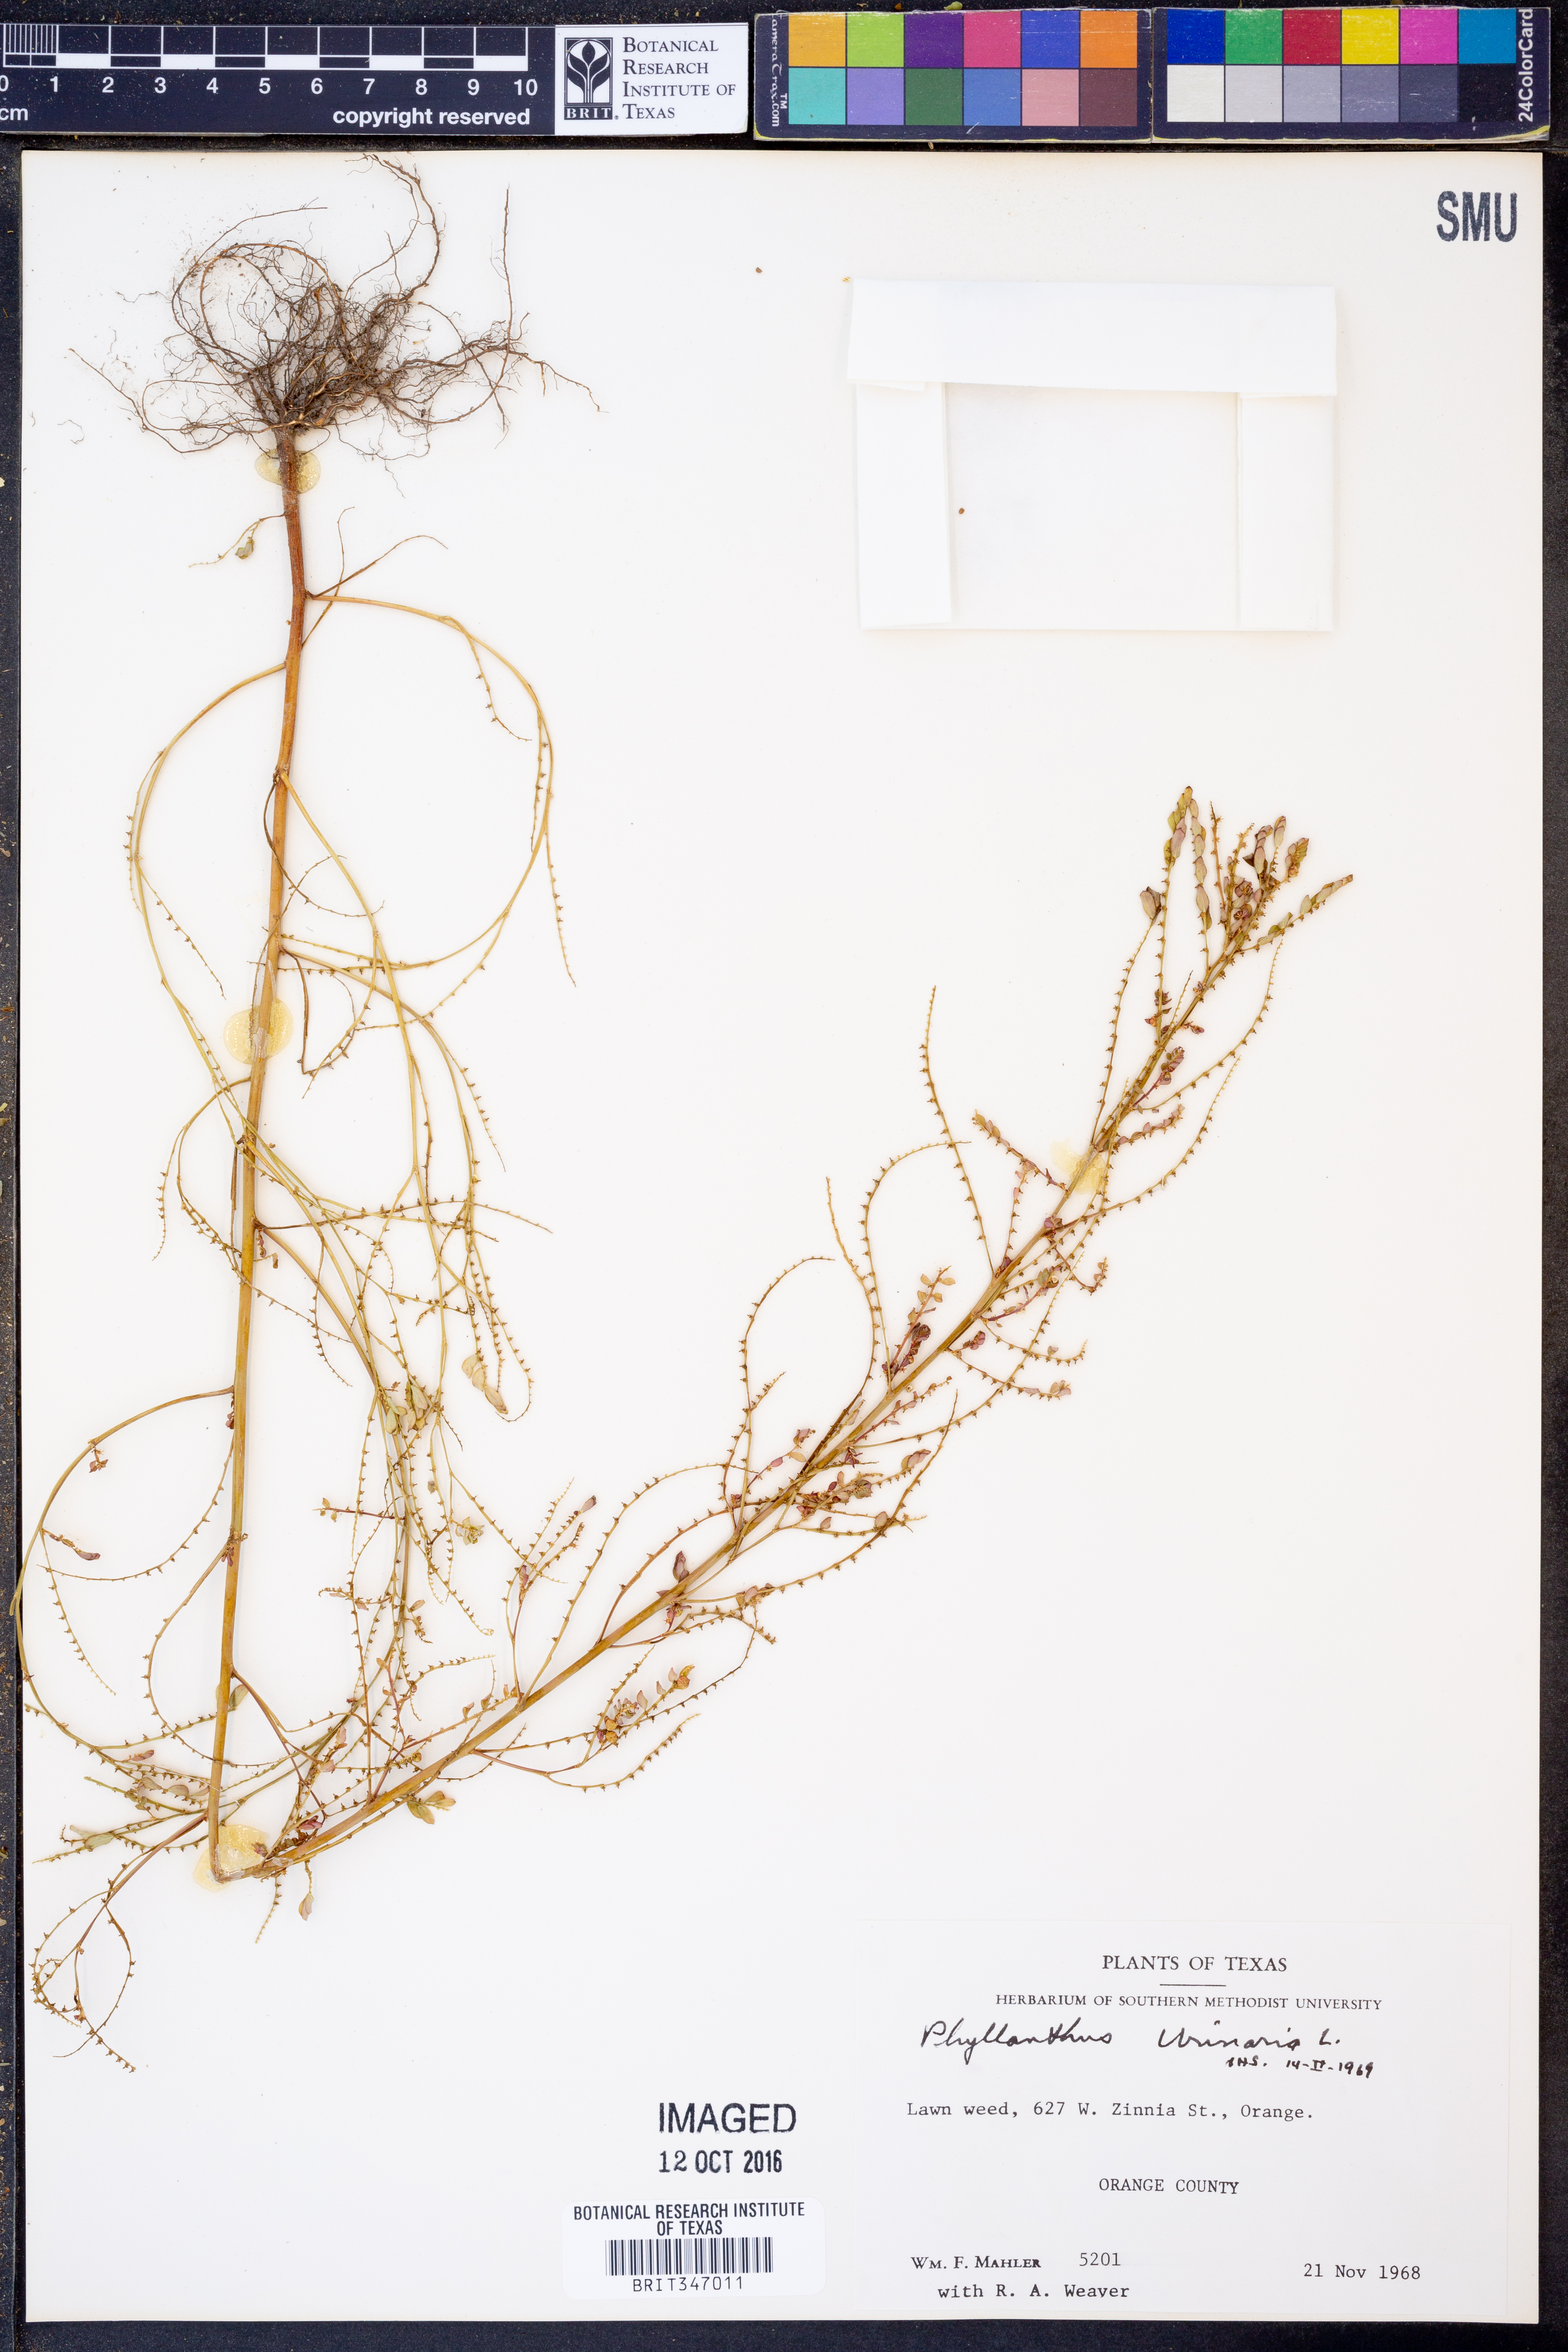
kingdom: Plantae
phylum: Tracheophyta
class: Magnoliopsida
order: Malpighiales
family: Phyllanthaceae
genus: Phyllanthus
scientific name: Phyllanthus urinaria
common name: Chamber bitter
